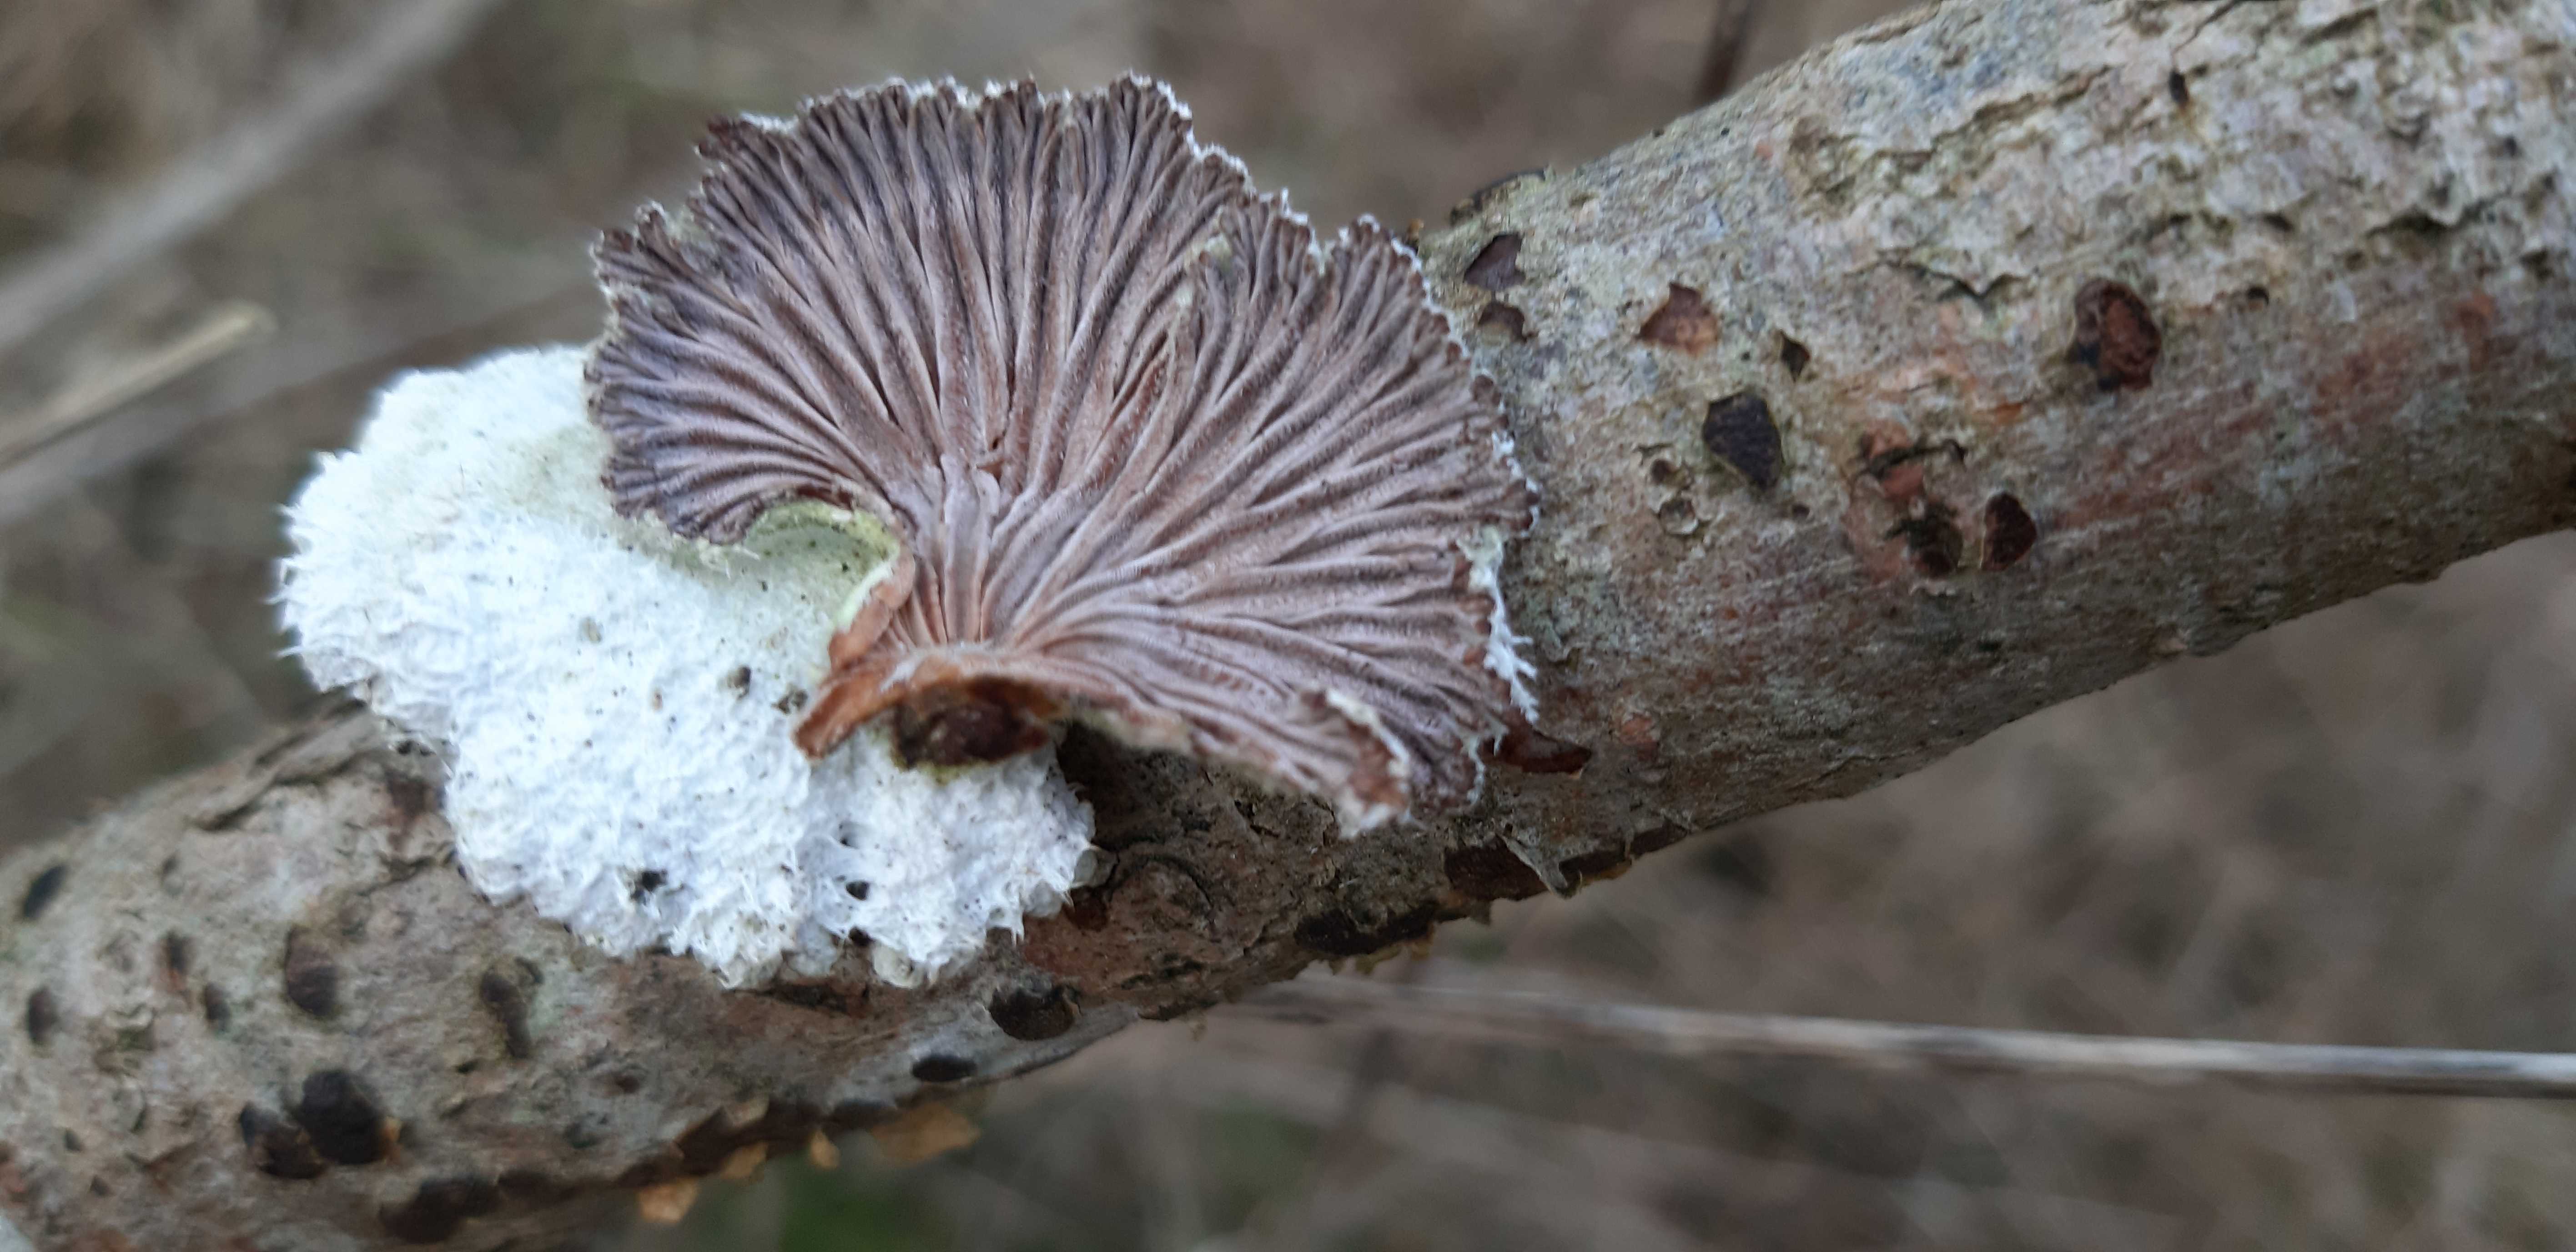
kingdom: Fungi
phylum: Basidiomycota
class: Agaricomycetes
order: Agaricales
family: Schizophyllaceae
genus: Schizophyllum
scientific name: Schizophyllum commune
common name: kløvblad
